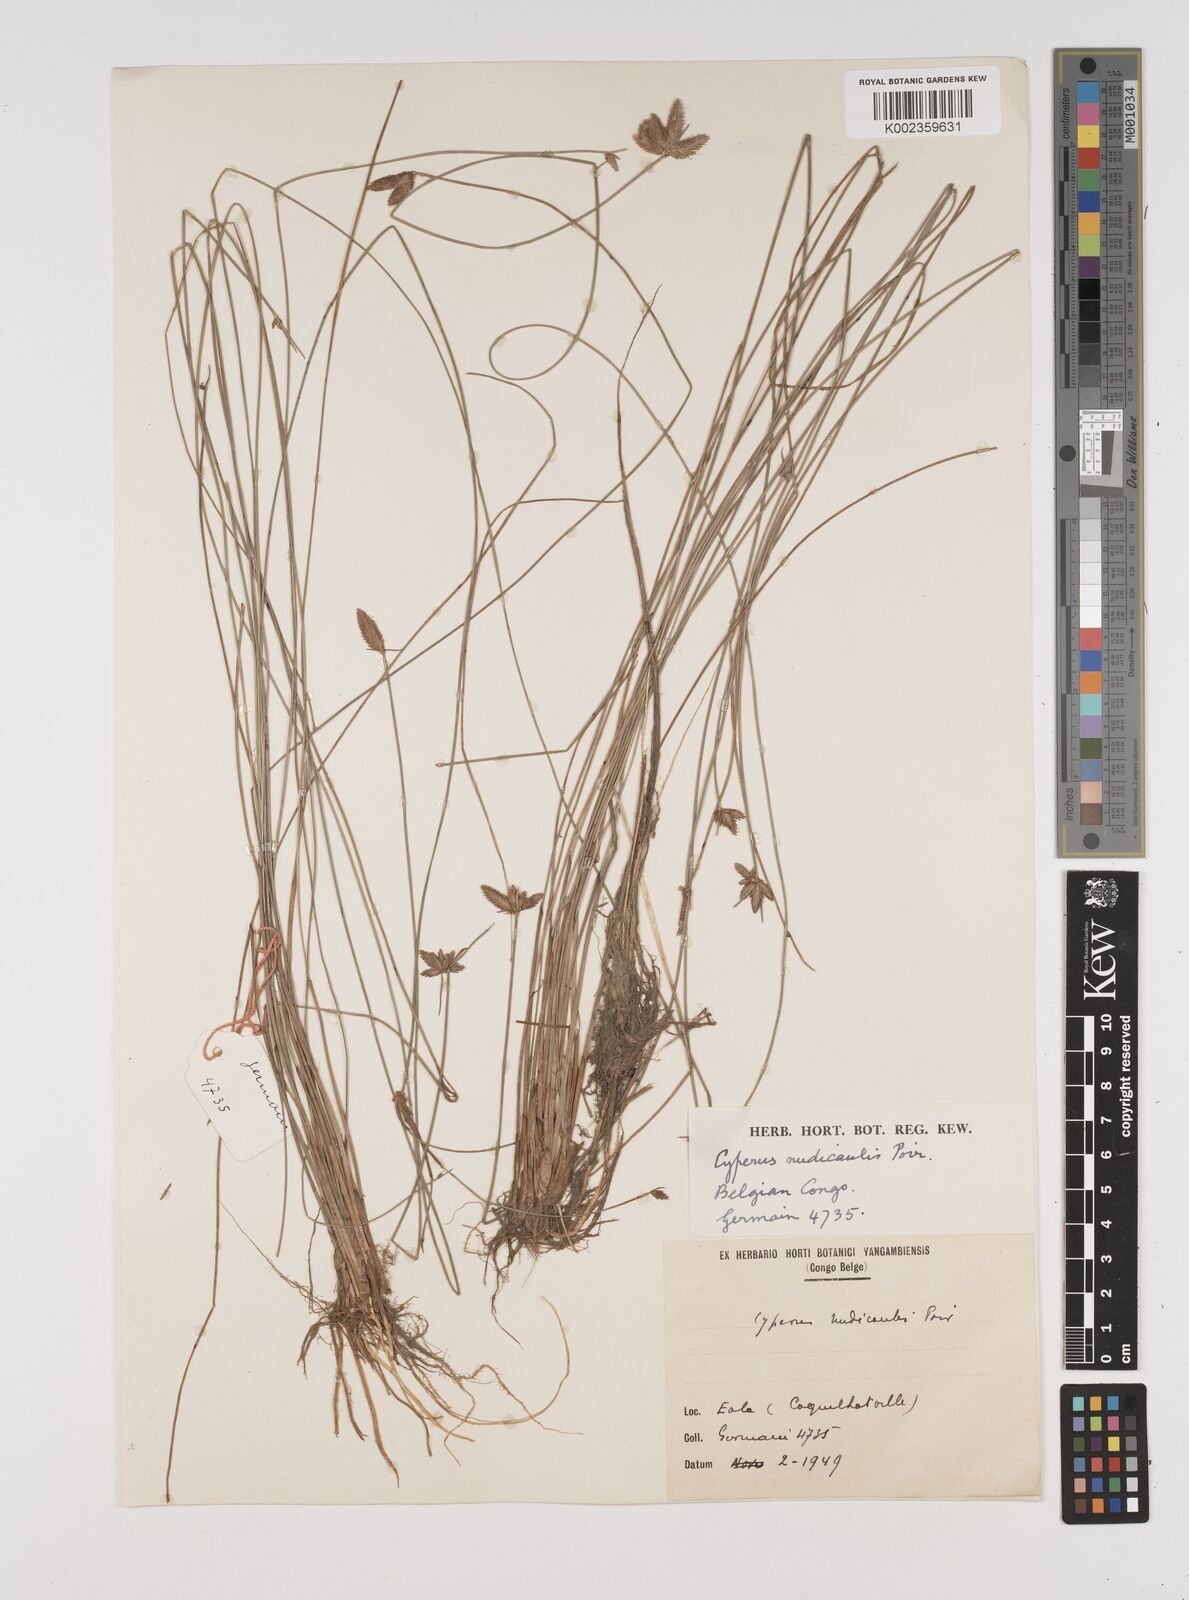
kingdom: Plantae
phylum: Tracheophyta
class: Liliopsida
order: Poales
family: Cyperaceae
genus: Cyperus
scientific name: Cyperus pectinatus
